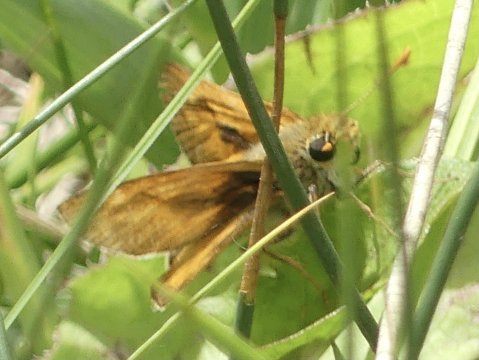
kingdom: Animalia
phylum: Arthropoda
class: Insecta
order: Lepidoptera
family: Hesperiidae
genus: Polites
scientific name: Polites
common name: Long Dash Skipper
